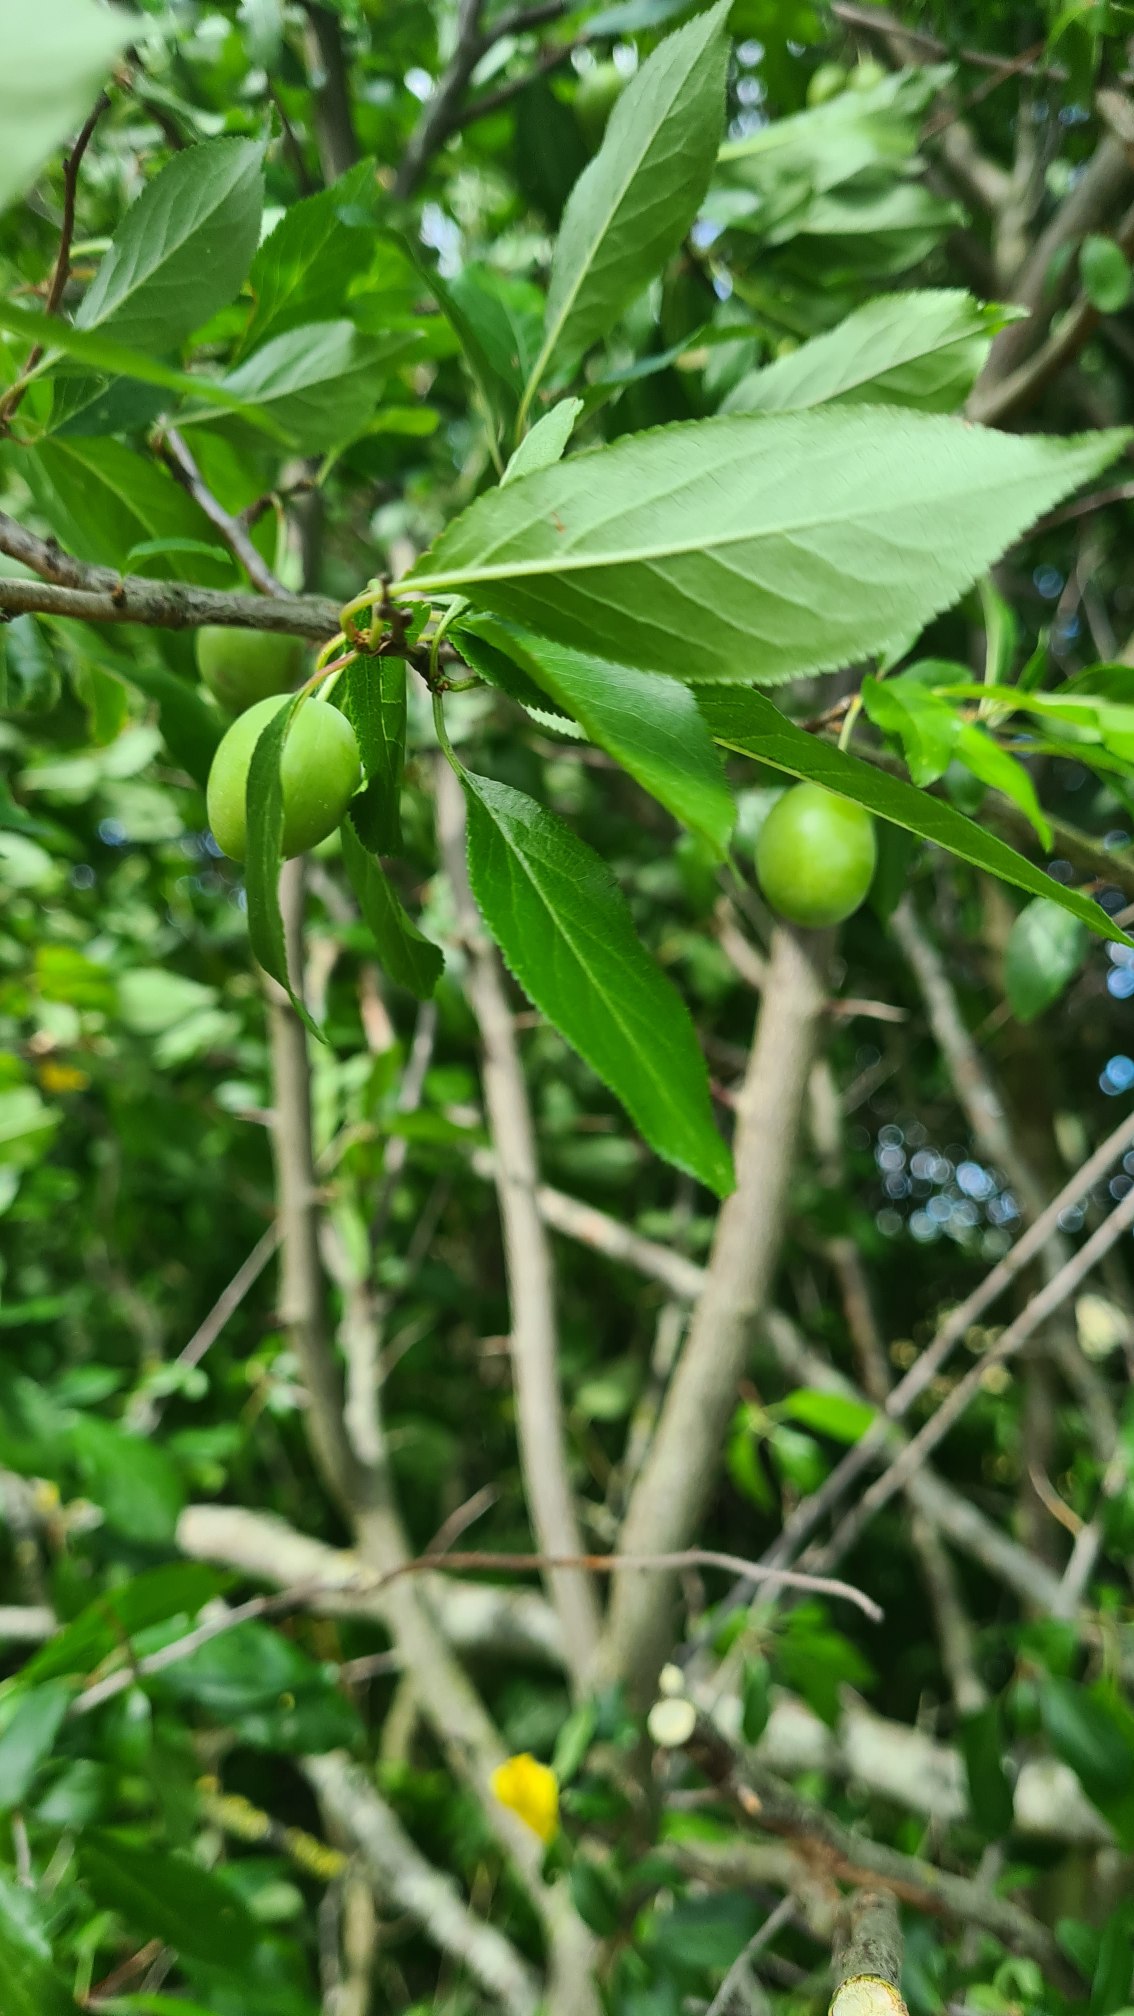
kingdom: Plantae
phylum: Tracheophyta
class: Magnoliopsida
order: Rosales
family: Rosaceae
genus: Prunus
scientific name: Prunus cerasifera
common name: Mirabel
